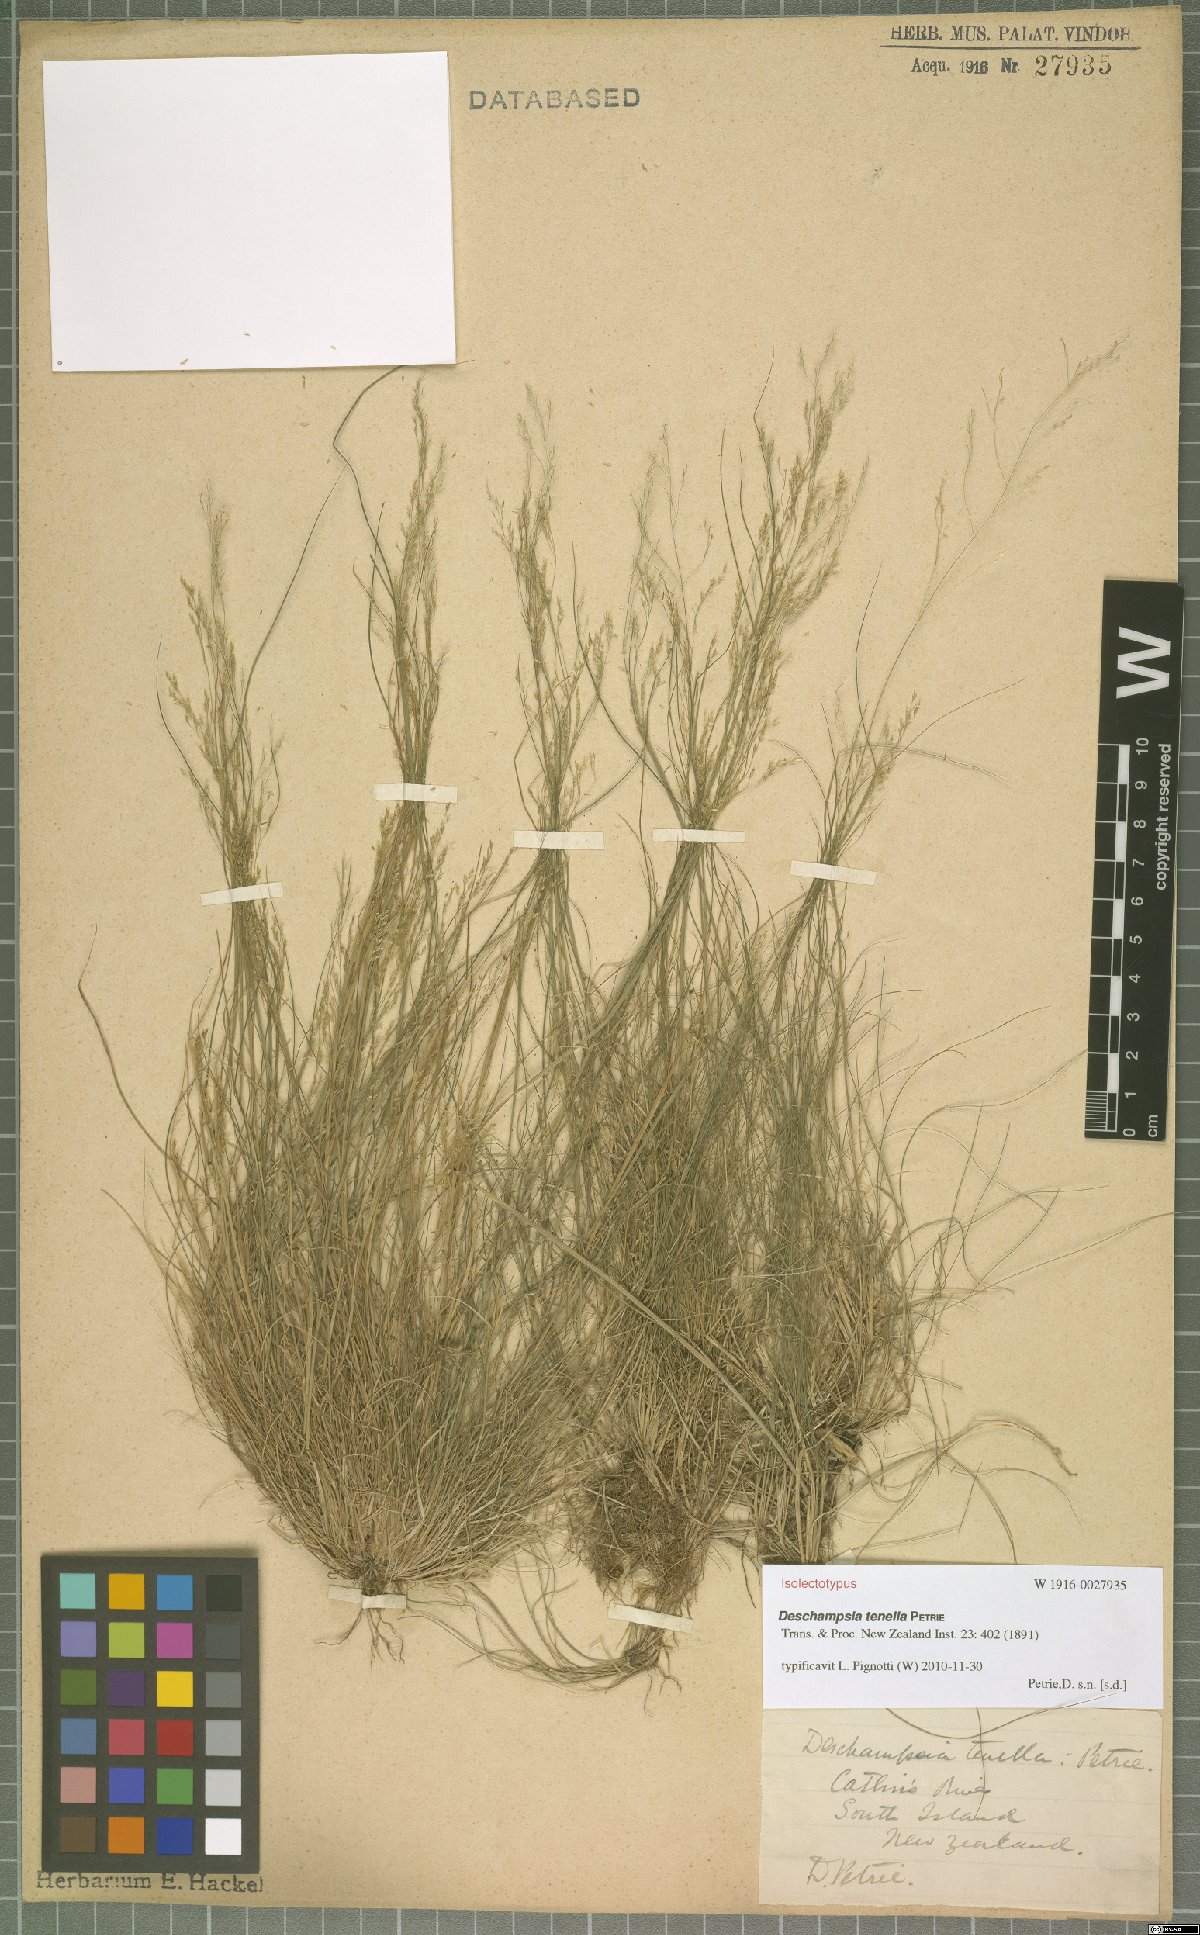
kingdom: Plantae
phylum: Tracheophyta
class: Liliopsida
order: Poales
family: Poaceae
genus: Deschampsia
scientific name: Deschampsia tenella
